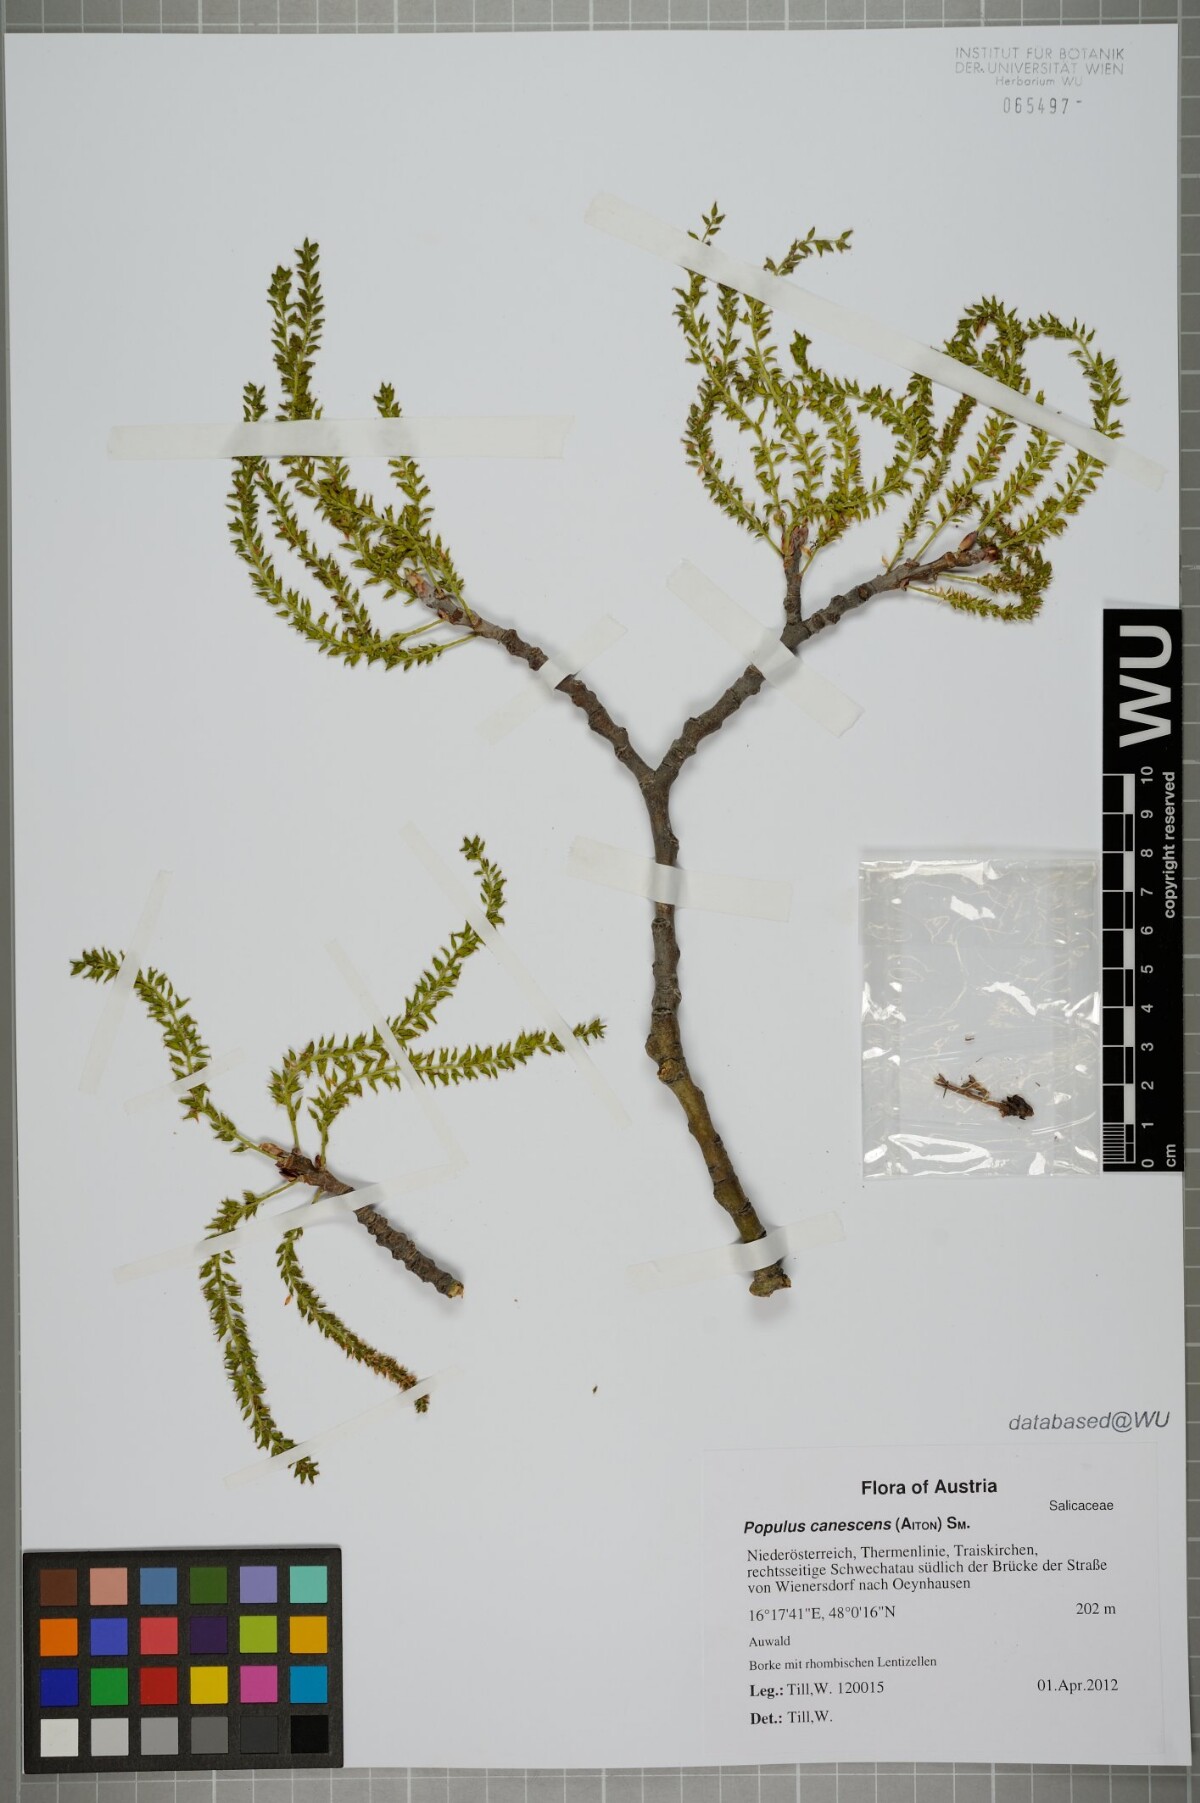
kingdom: Plantae
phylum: Tracheophyta
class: Magnoliopsida
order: Malpighiales
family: Salicaceae
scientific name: Salicaceae
